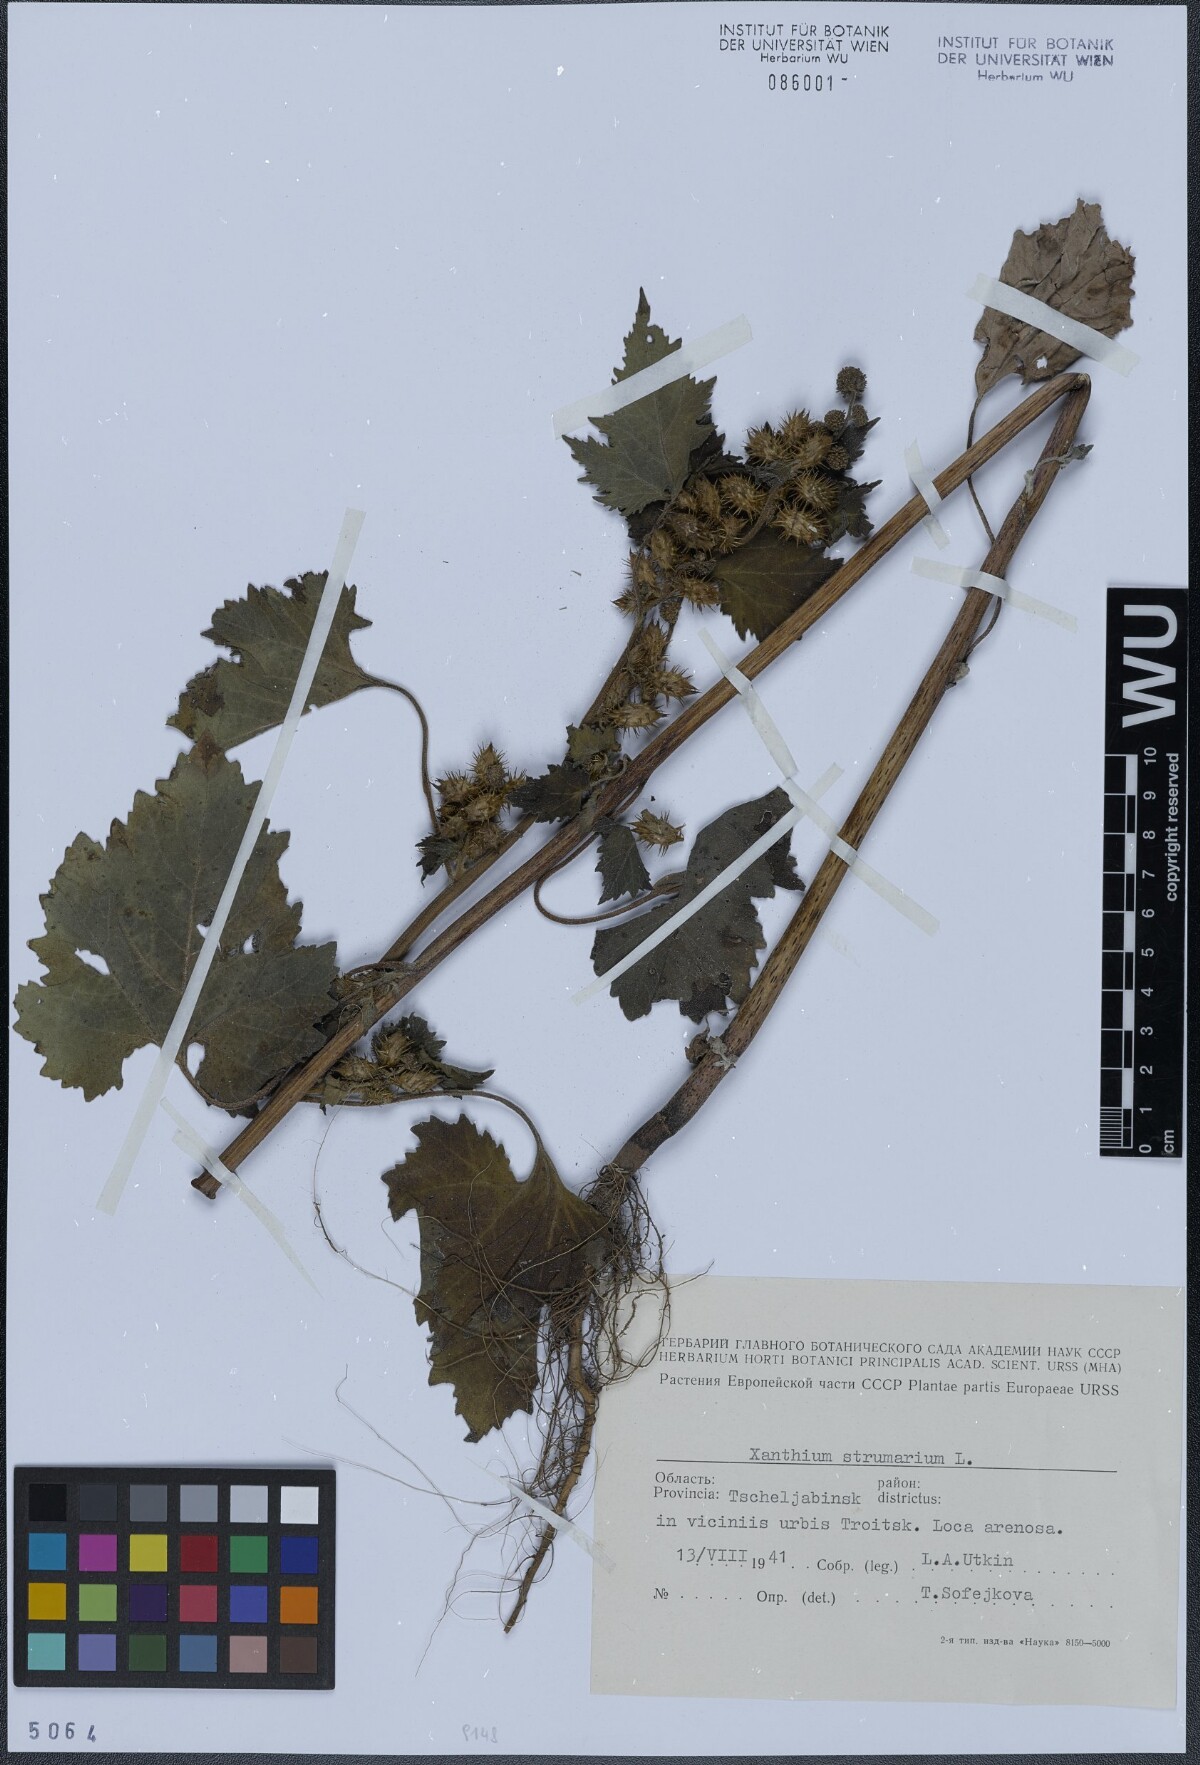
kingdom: Plantae
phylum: Tracheophyta
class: Magnoliopsida
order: Asterales
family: Asteraceae
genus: Xanthium
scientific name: Xanthium strumarium
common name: Rough cocklebur
